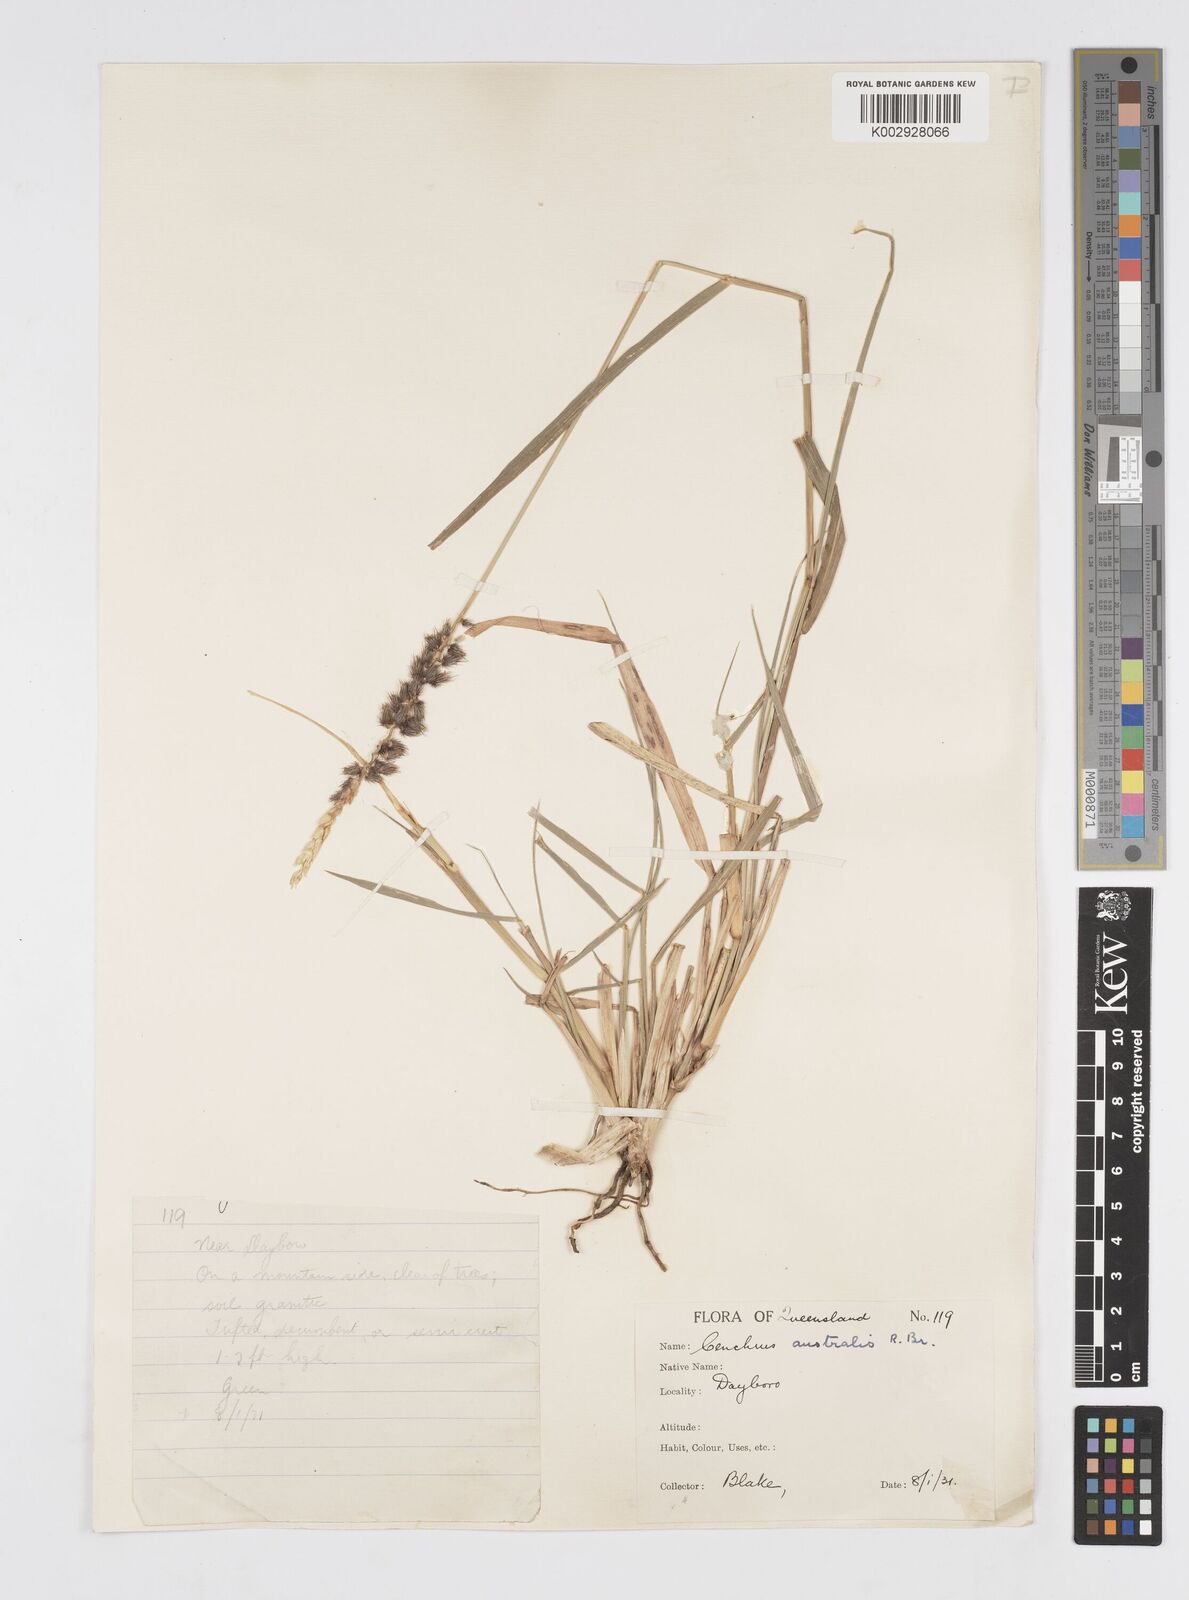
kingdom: Plantae
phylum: Tracheophyta
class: Liliopsida
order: Poales
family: Poaceae
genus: Cenchrus
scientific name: Cenchrus caliculatus
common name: Large bur grass
